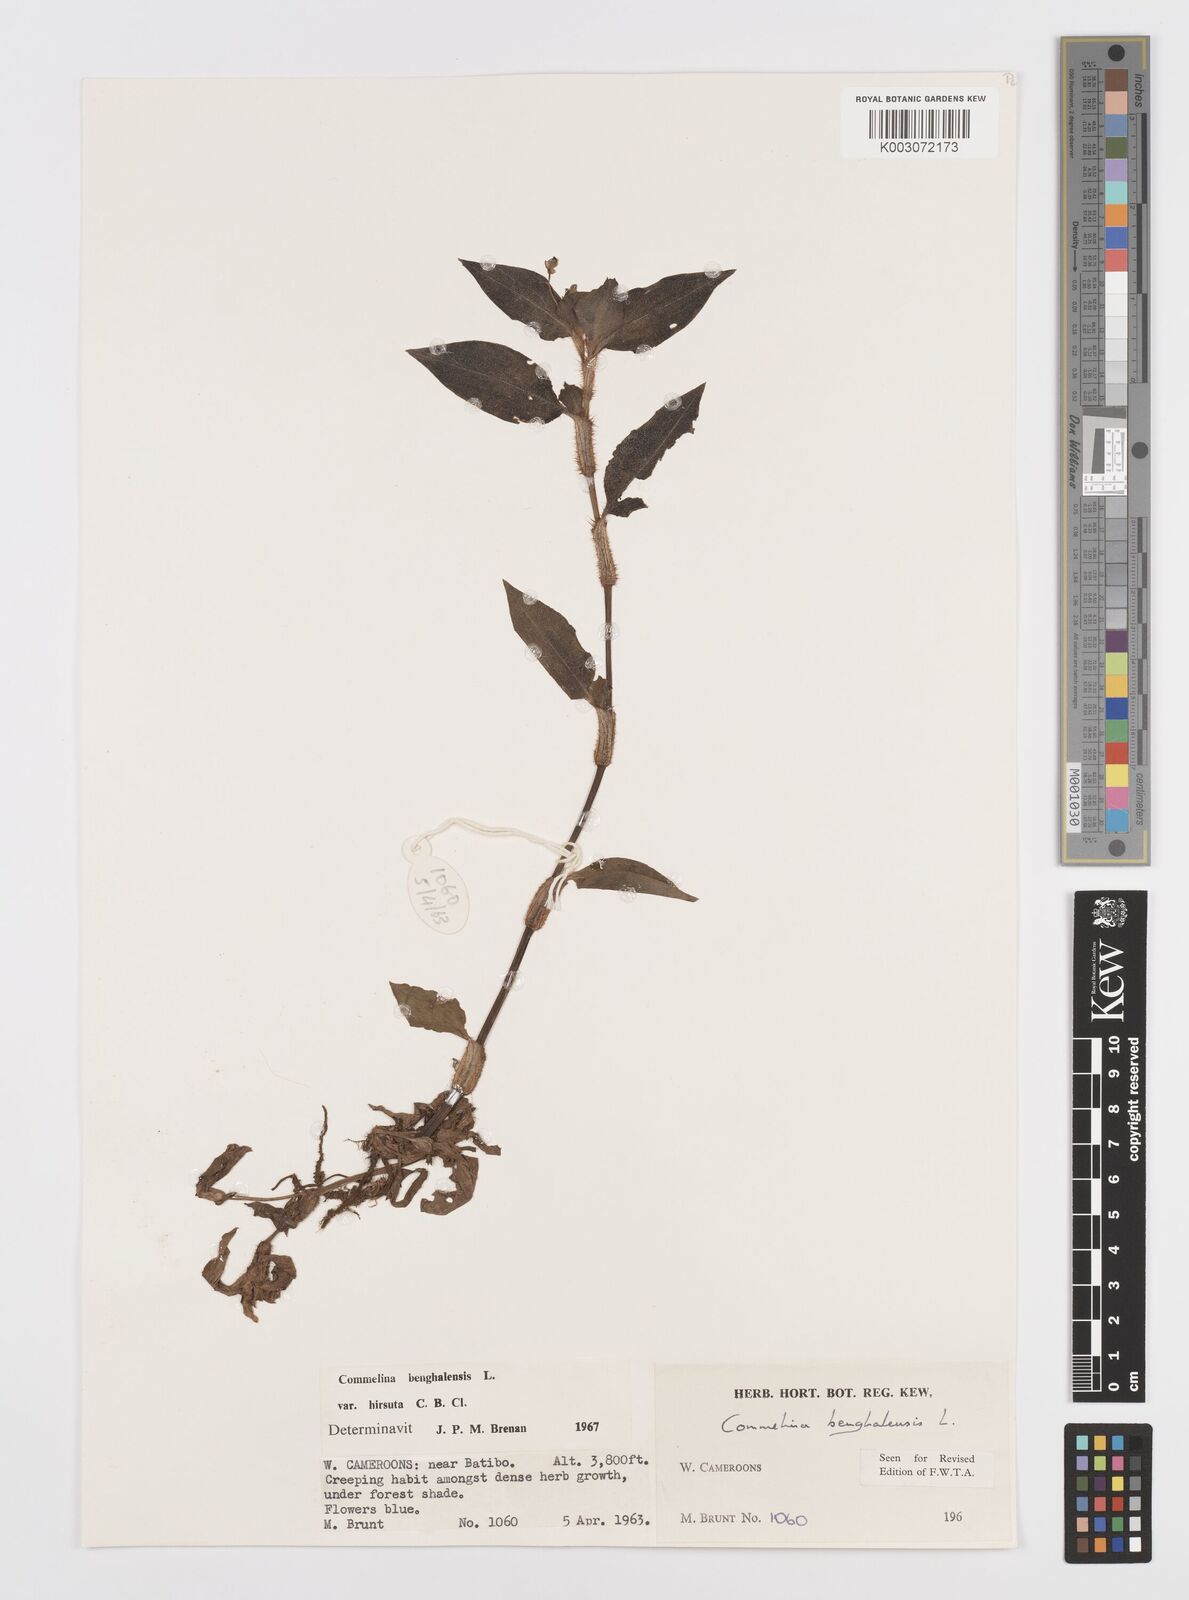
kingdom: Plantae
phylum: Tracheophyta
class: Liliopsida
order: Commelinales
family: Commelinaceae
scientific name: Commelinaceae
